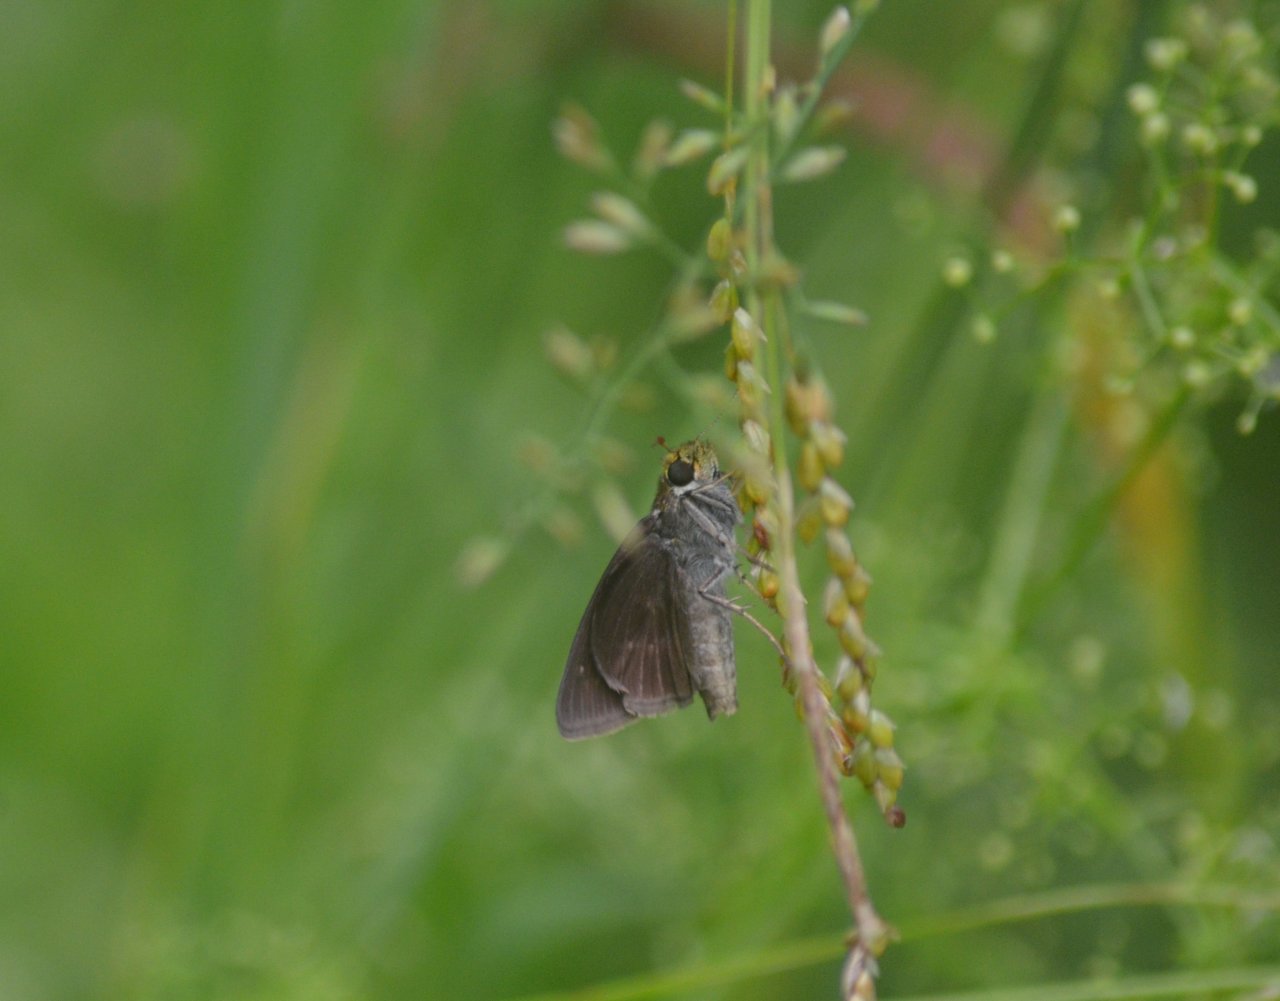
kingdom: Animalia
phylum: Arthropoda
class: Insecta
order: Lepidoptera
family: Hesperiidae
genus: Euphyes
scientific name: Euphyes vestris
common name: Dun Skipper
